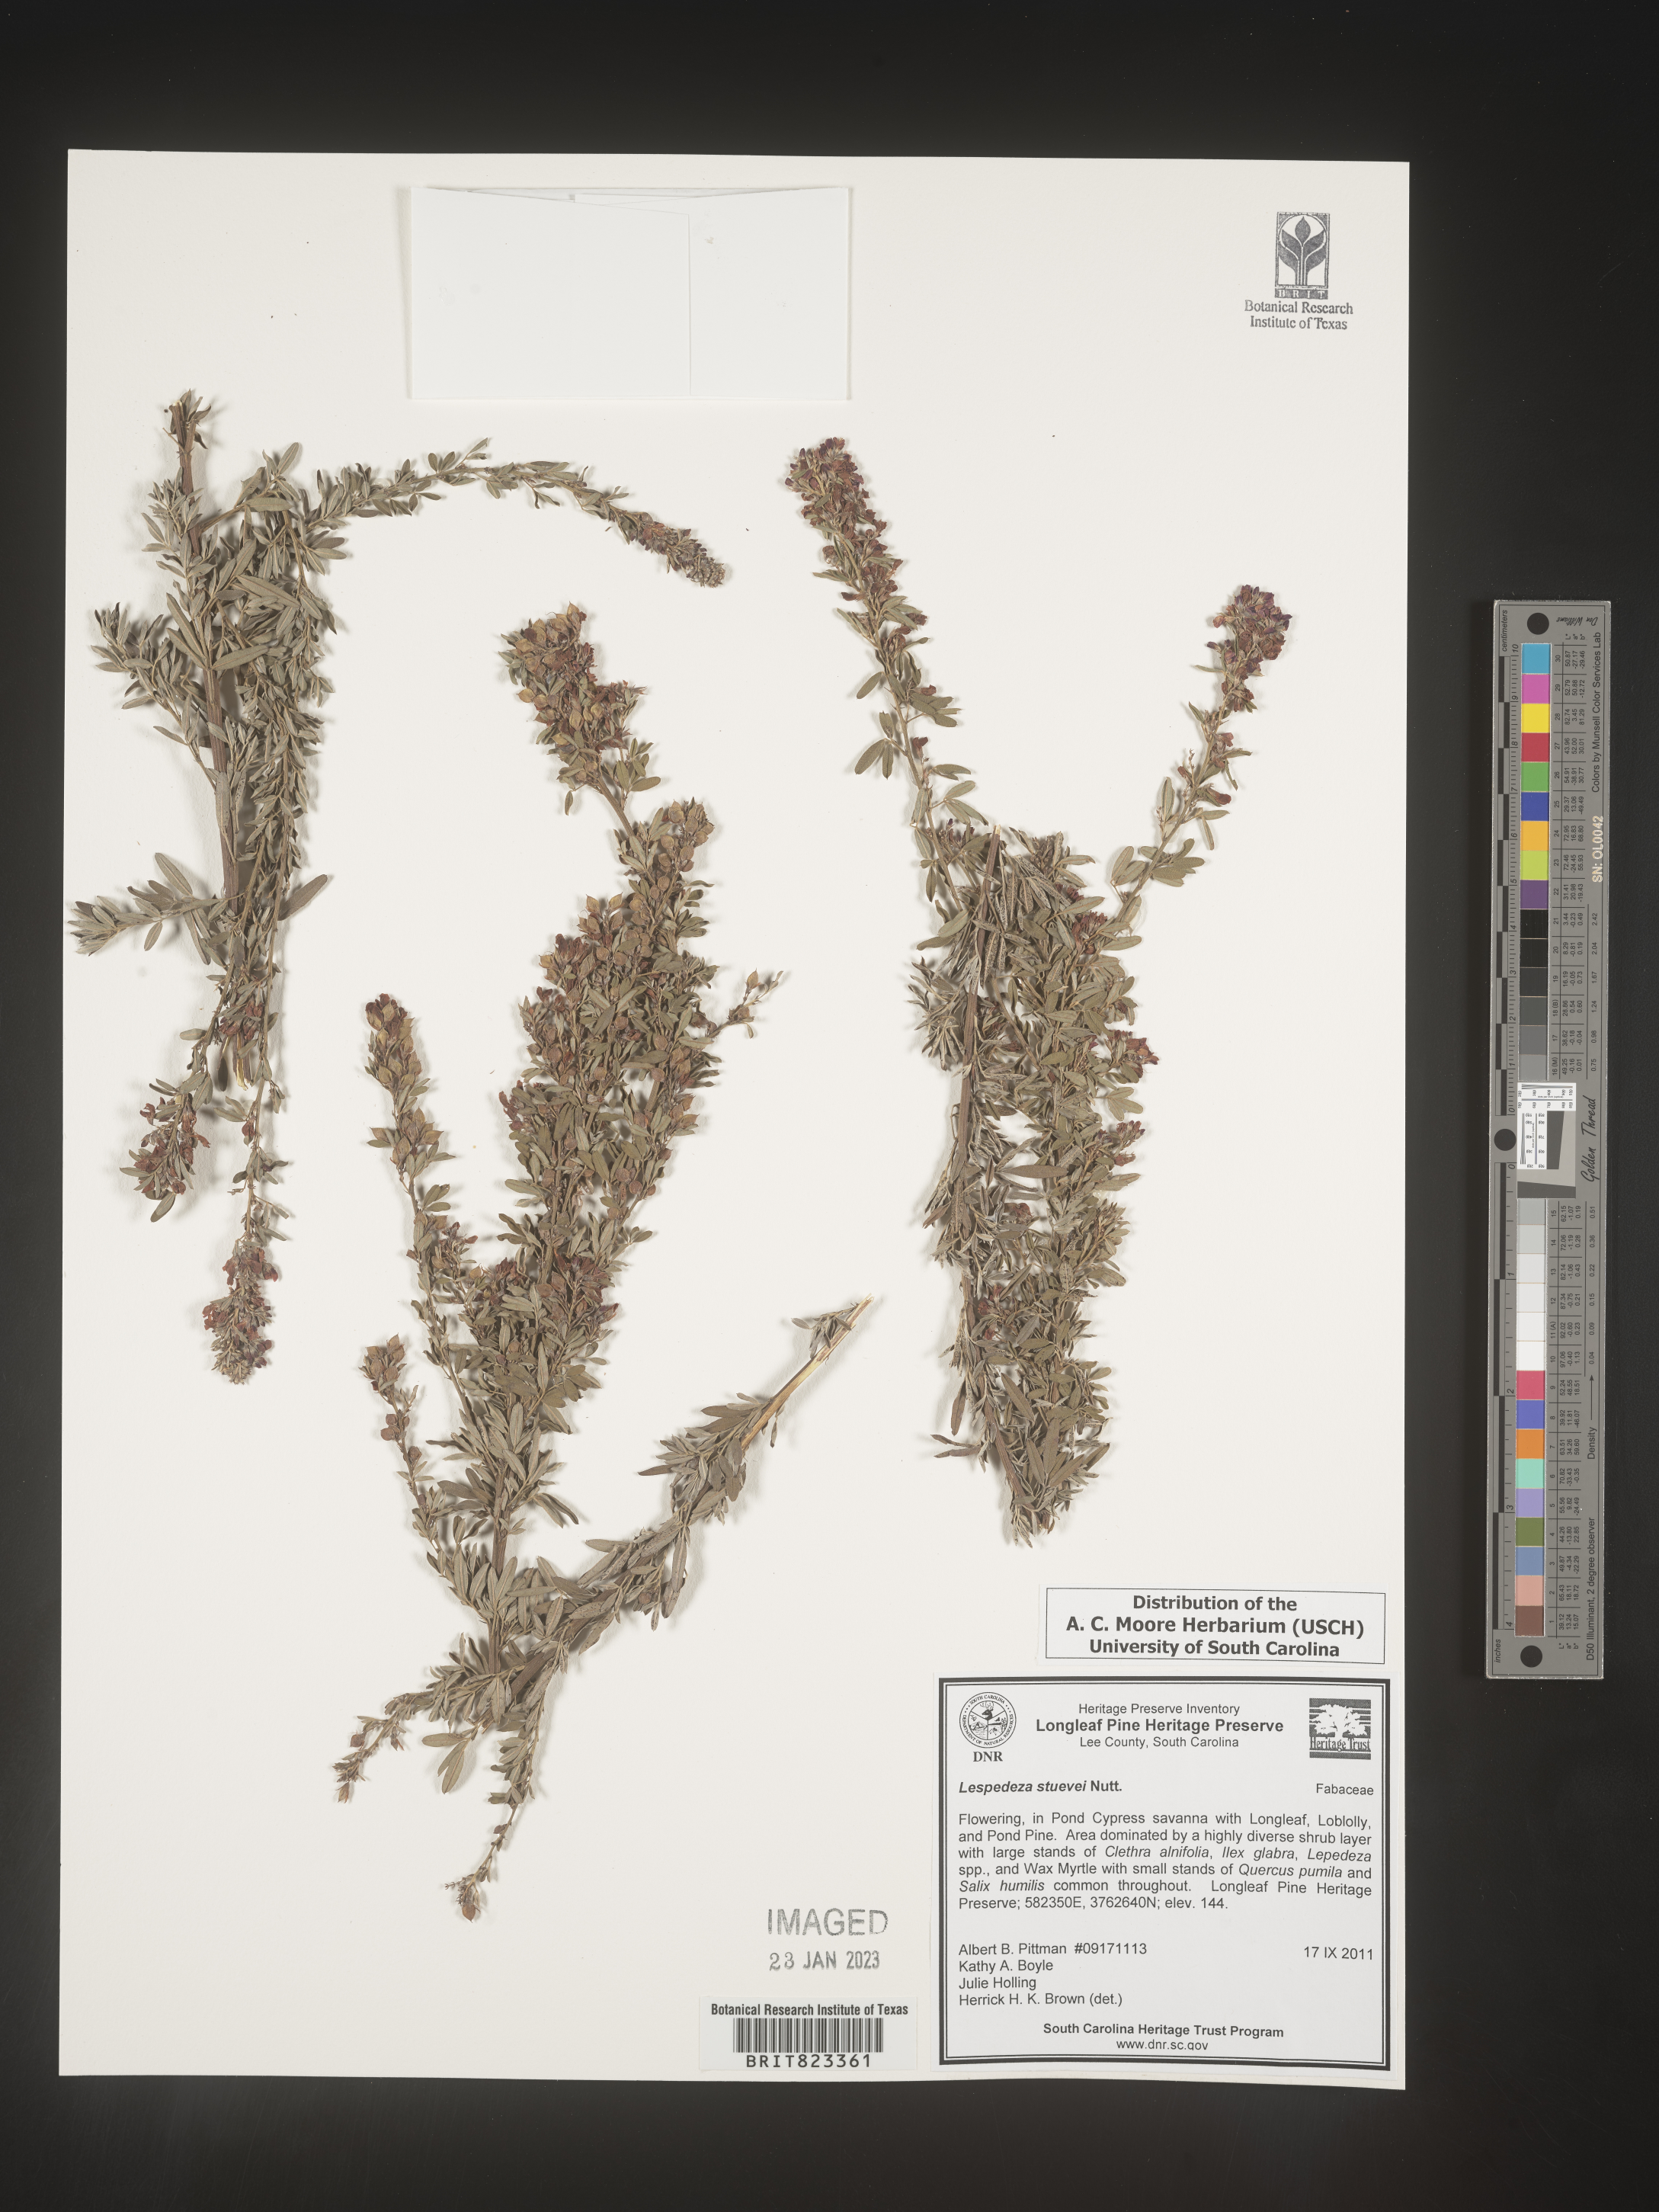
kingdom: Plantae
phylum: Tracheophyta
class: Magnoliopsida
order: Fabales
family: Fabaceae
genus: Lespedeza
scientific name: Lespedeza stuevei
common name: Tall bush-clover
